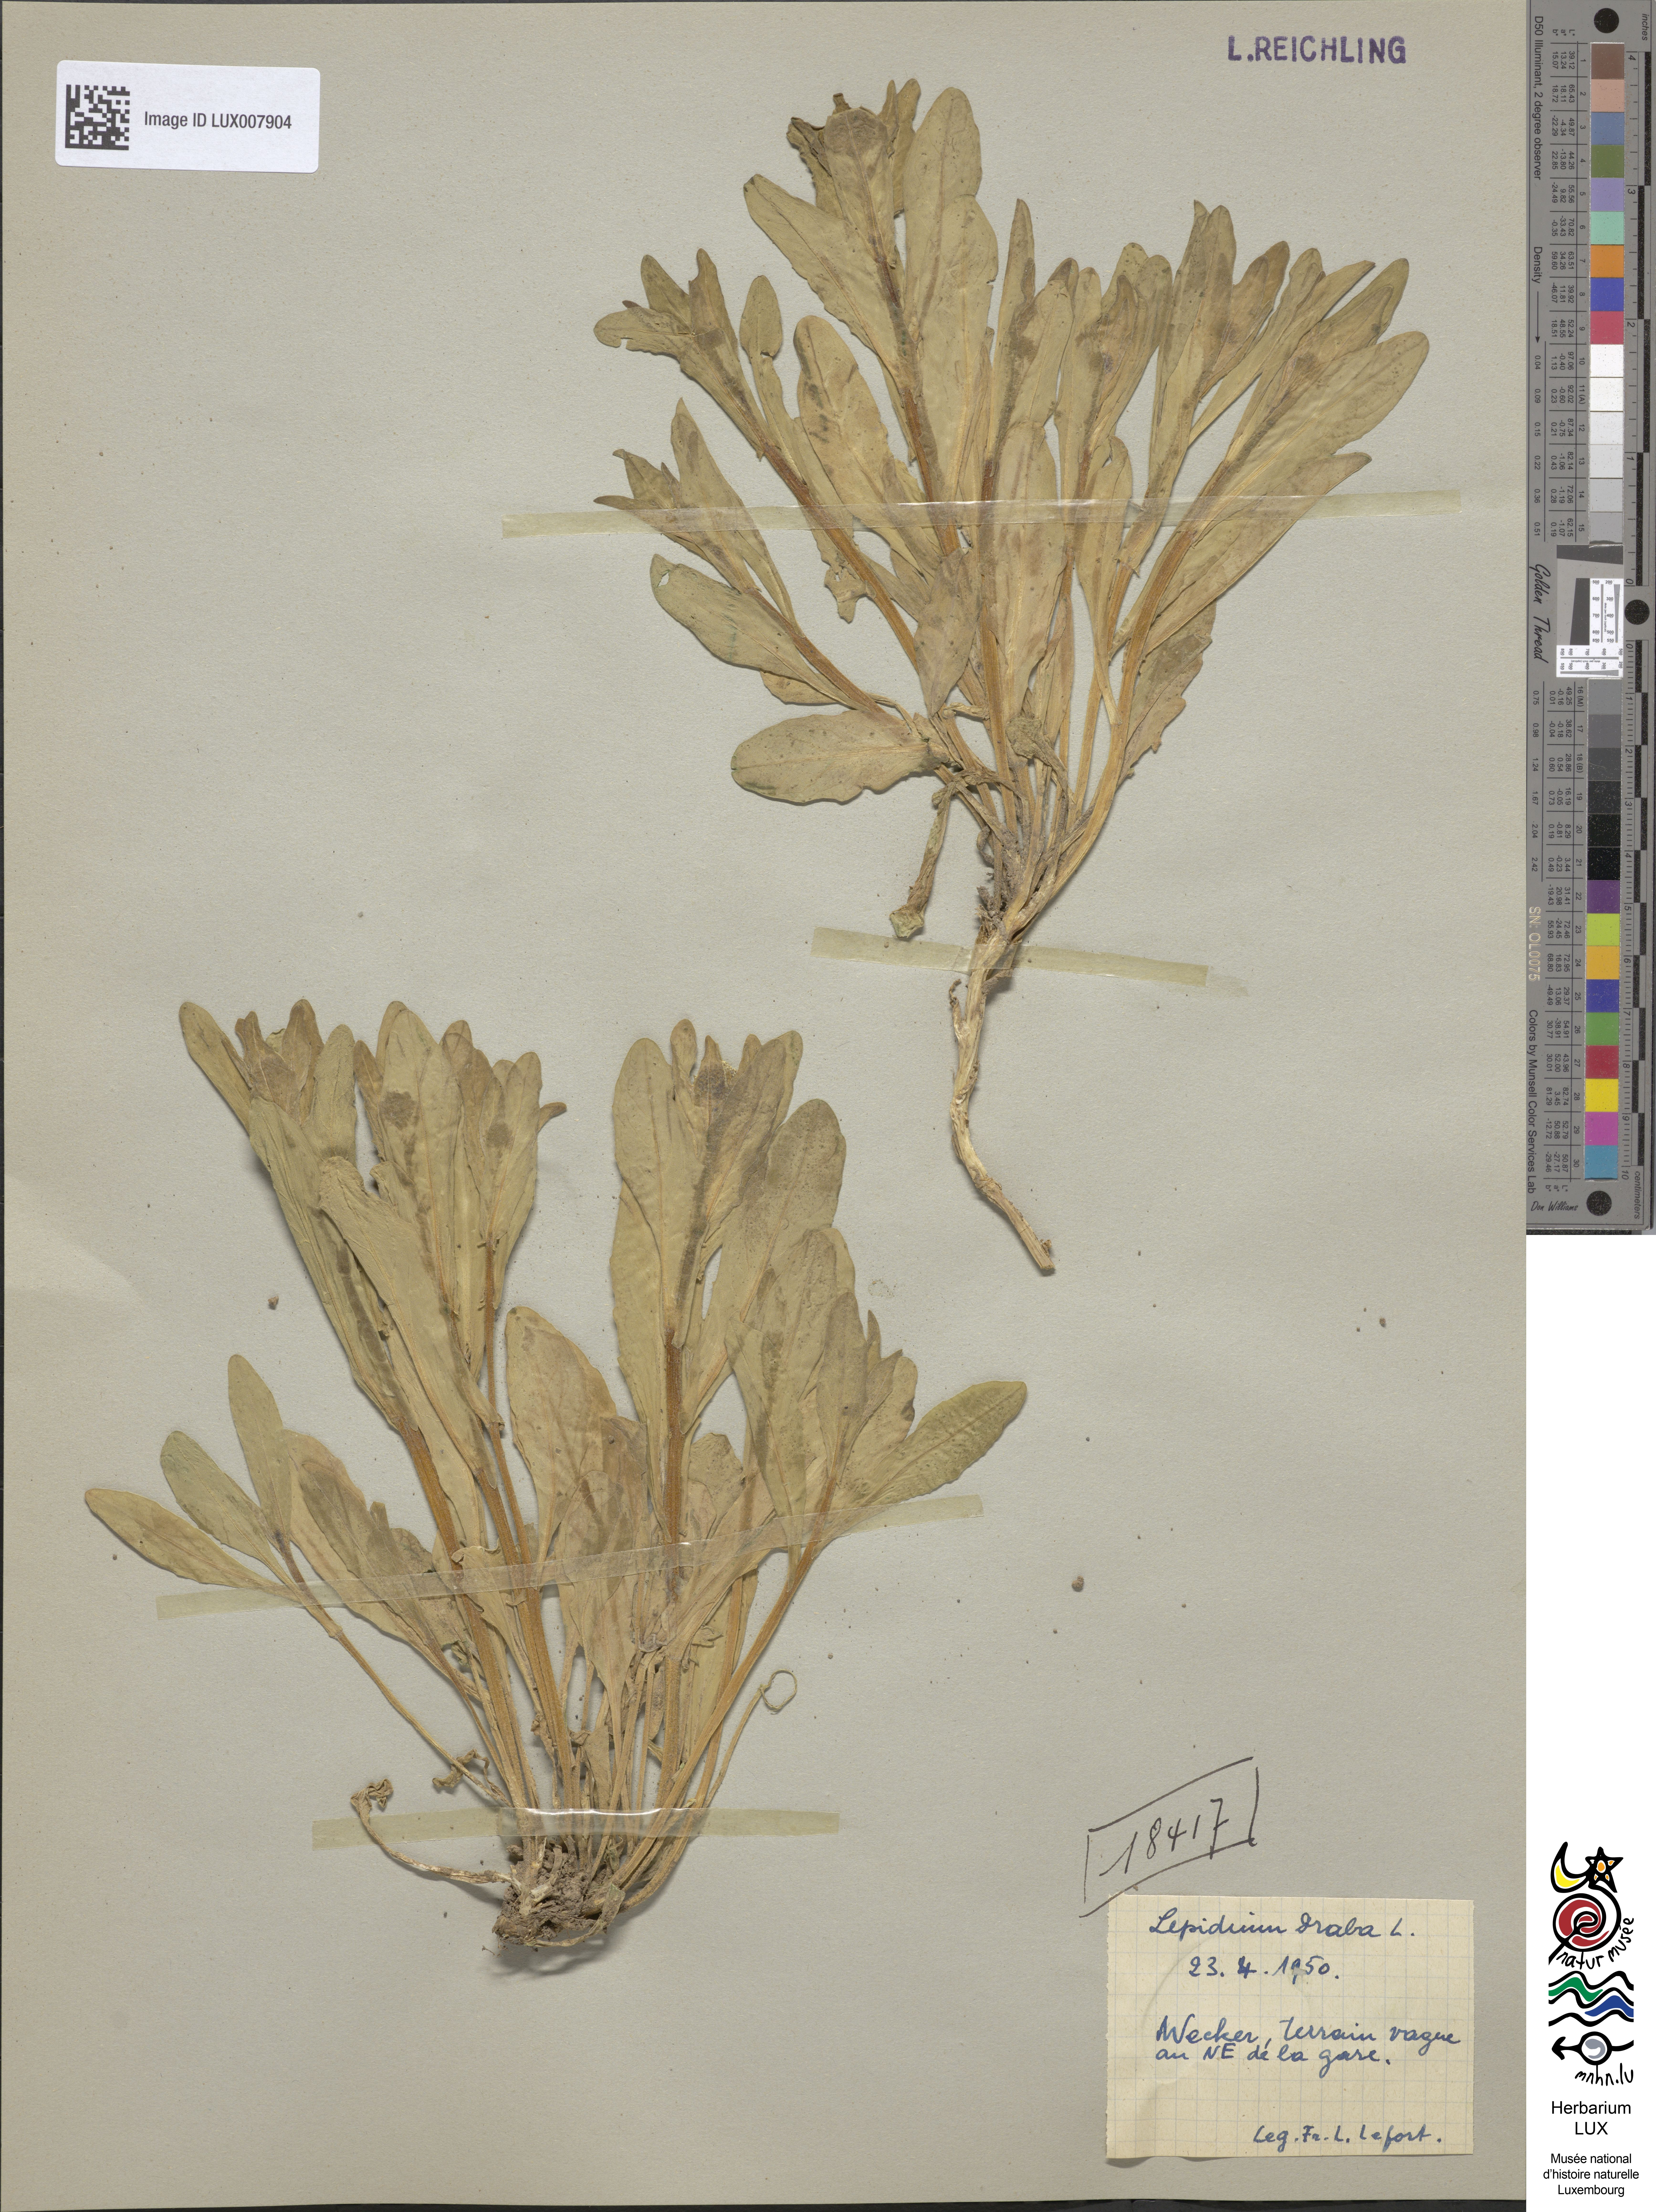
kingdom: Plantae
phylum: Tracheophyta
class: Magnoliopsida
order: Brassicales
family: Brassicaceae
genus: Lepidium
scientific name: Lepidium draba
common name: Hoary cress
